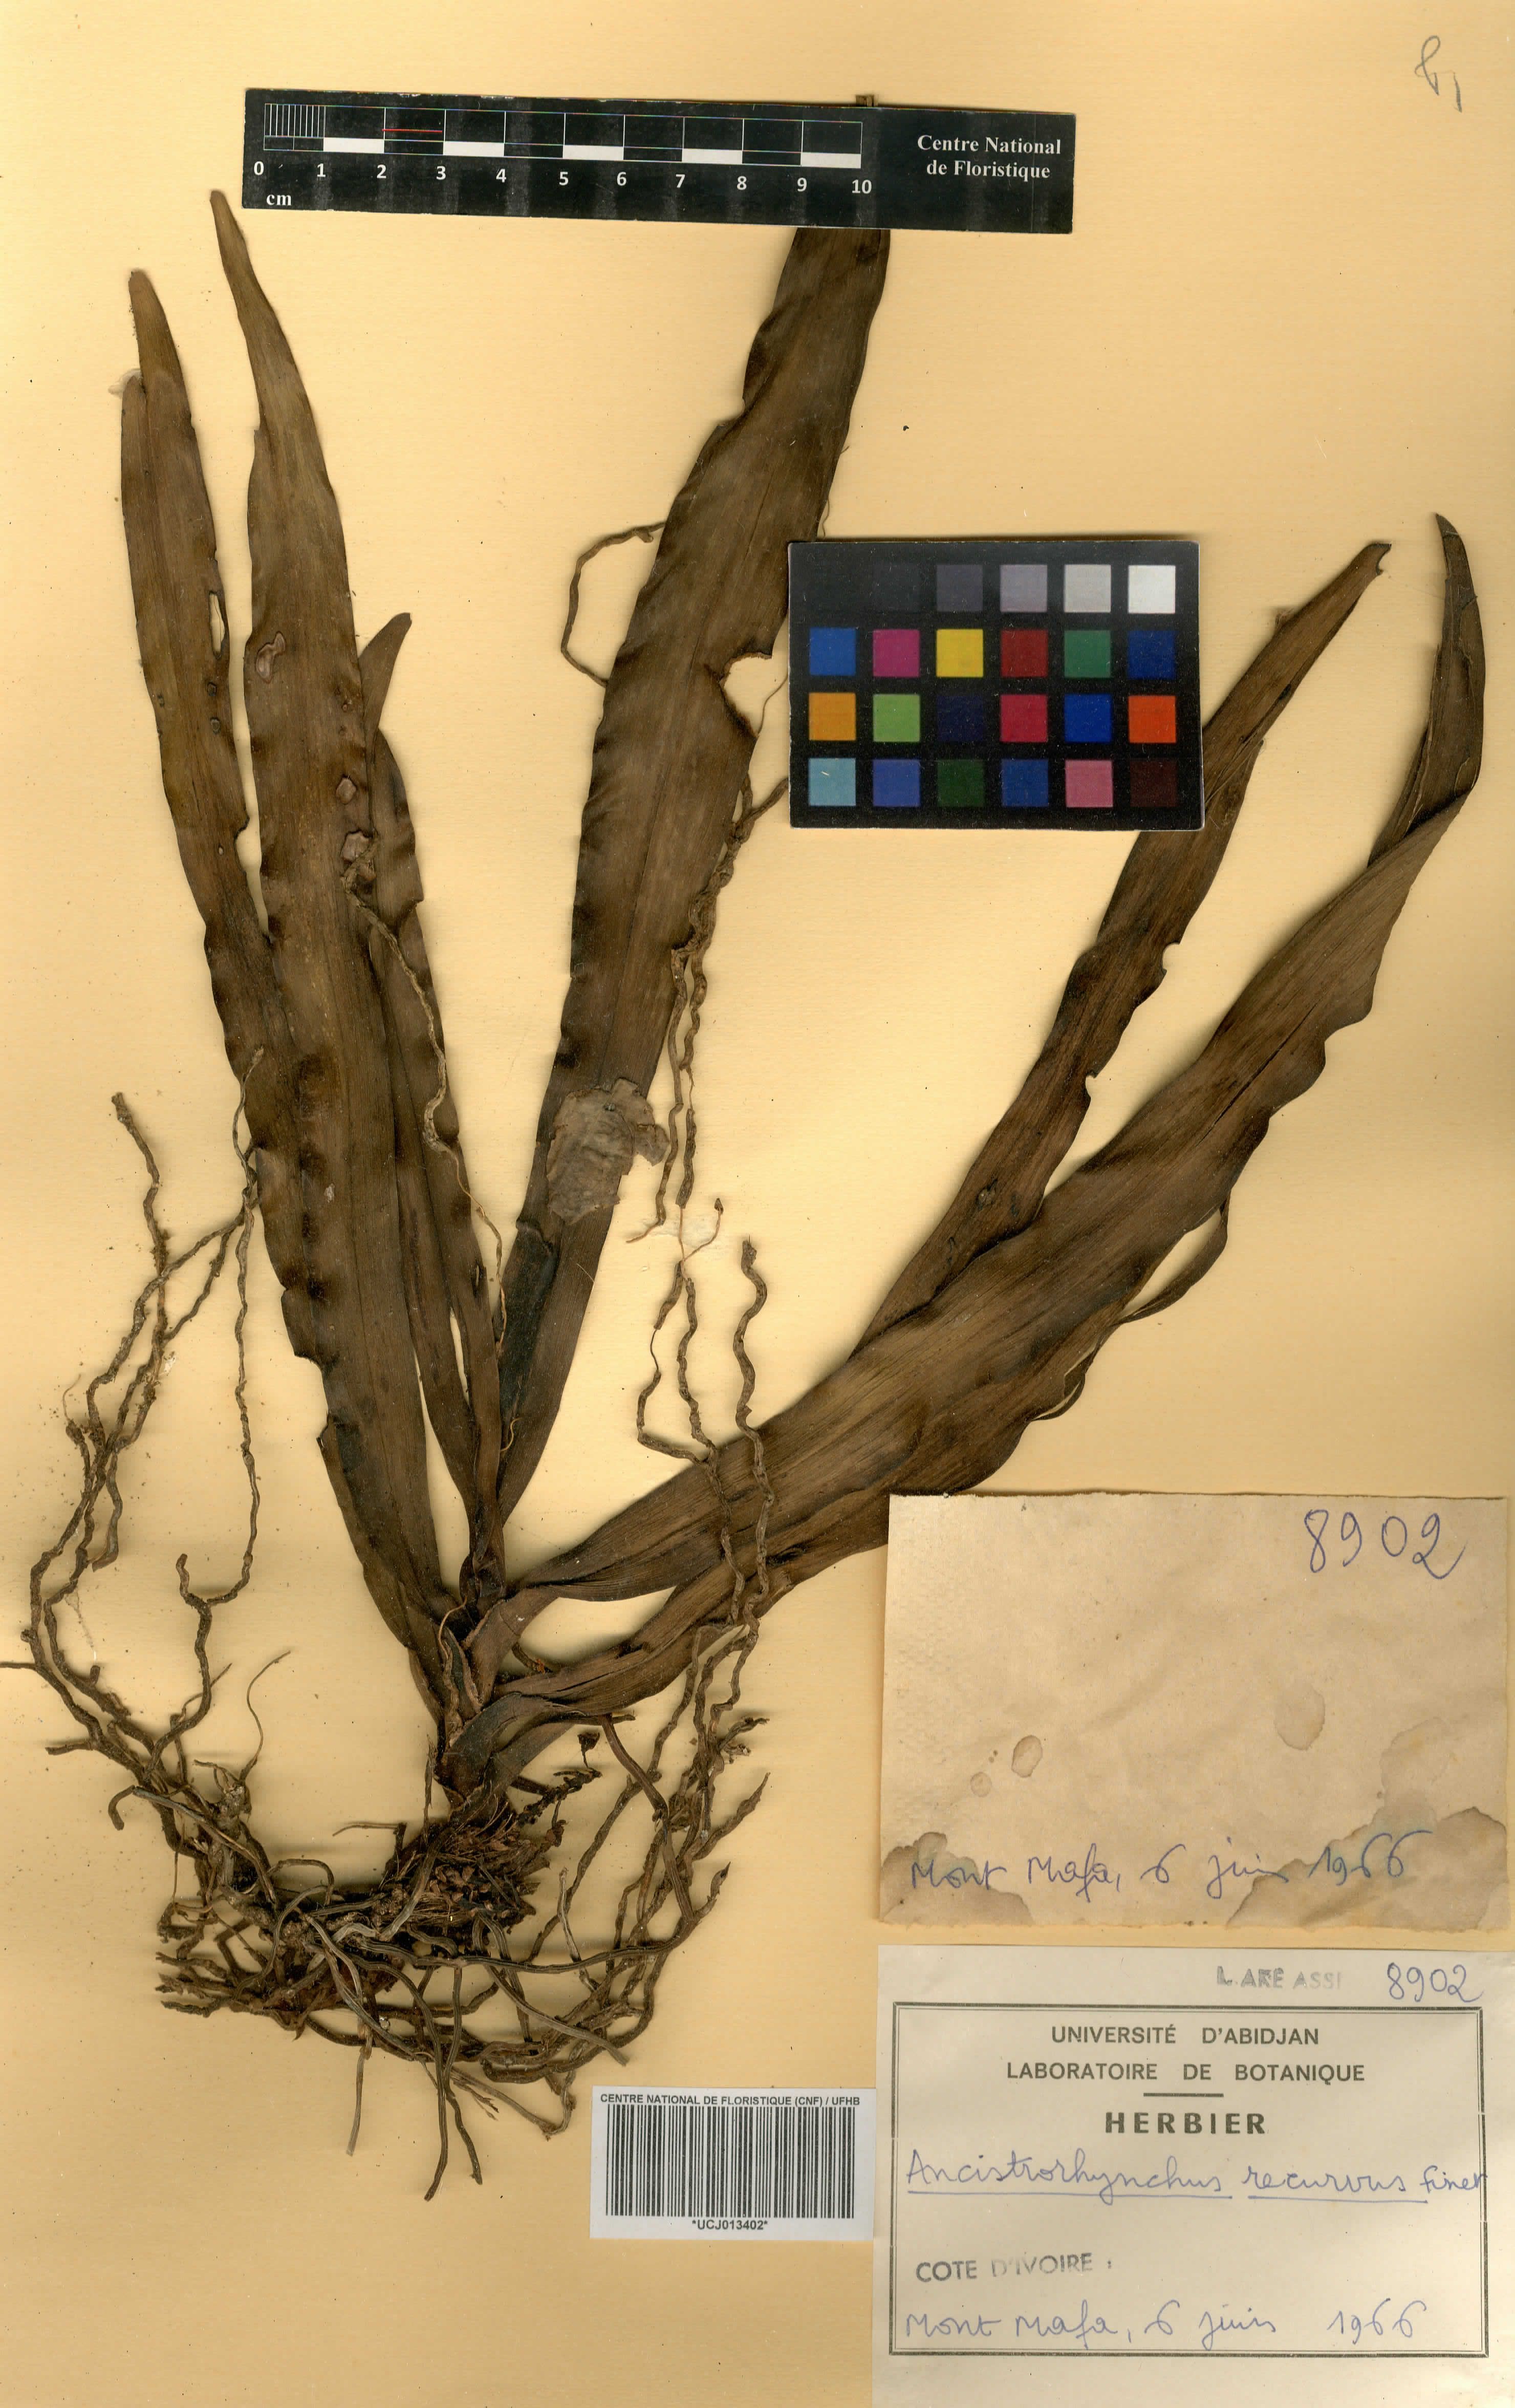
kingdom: Plantae
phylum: Tracheophyta
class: Liliopsida
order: Asparagales
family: Orchidaceae
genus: Ancistrorhynchus
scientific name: Ancistrorhynchus recurvus
